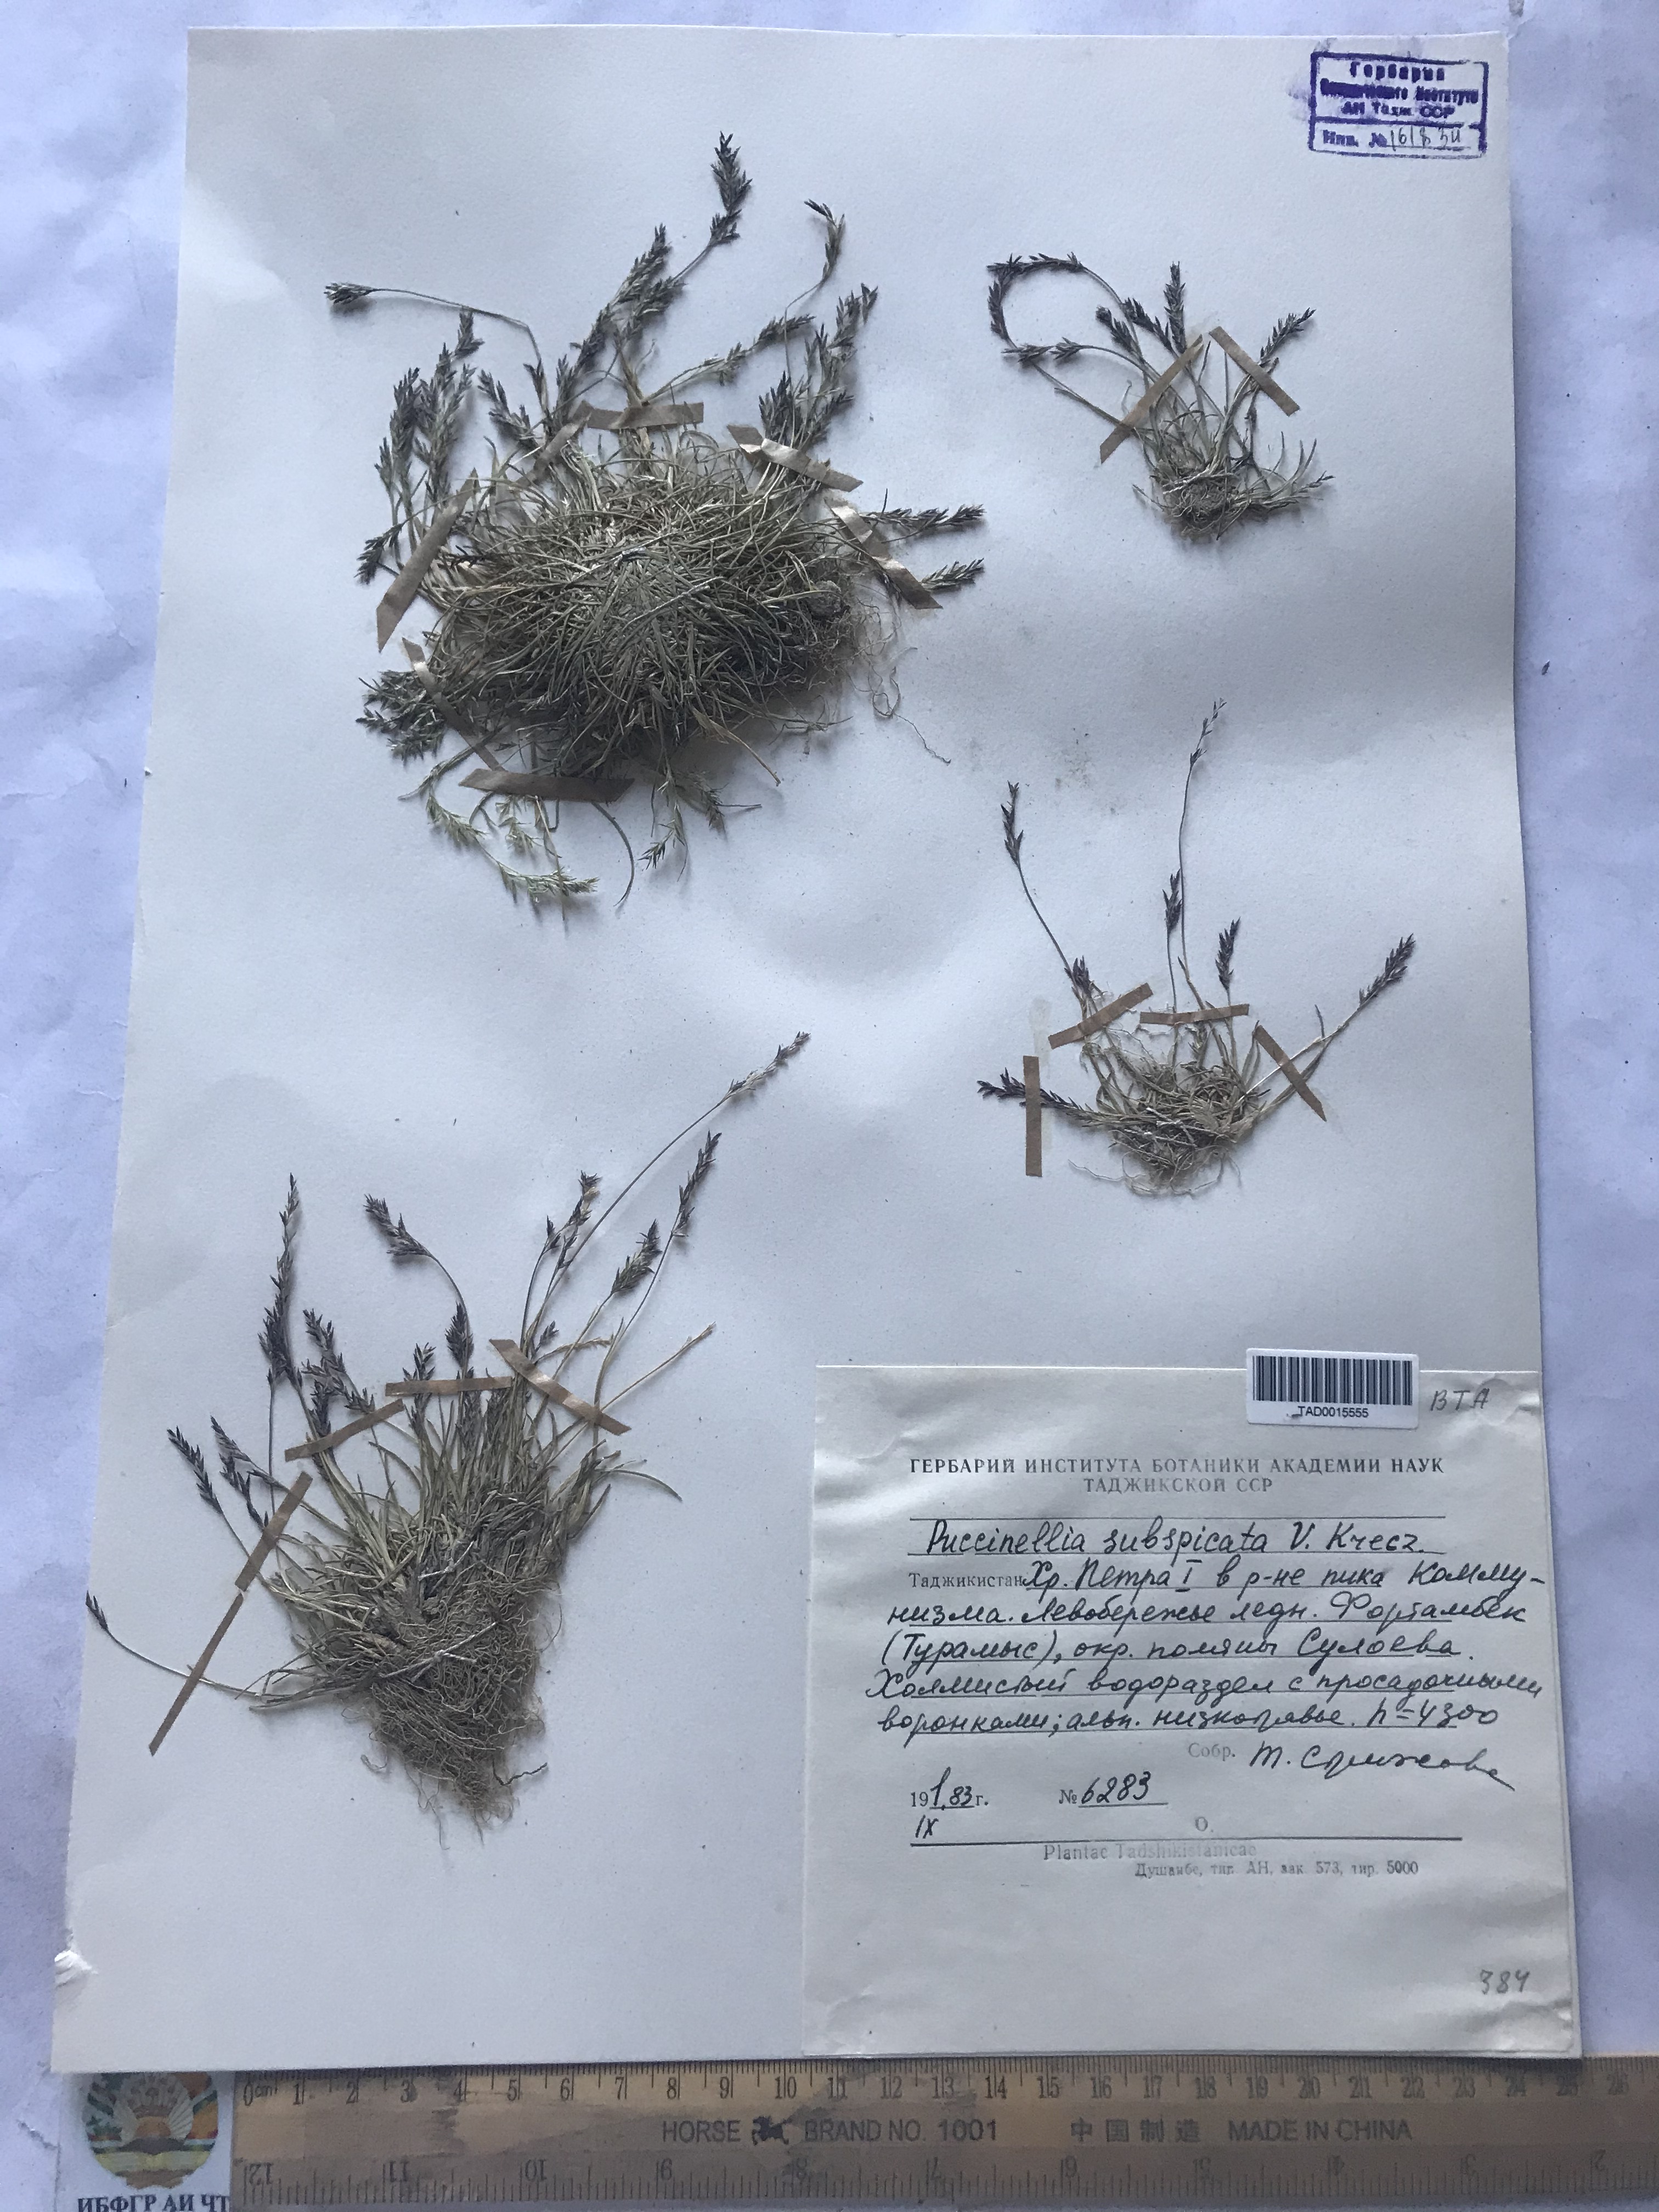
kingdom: Plantae
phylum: Tracheophyta
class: Liliopsida
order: Poales
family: Poaceae
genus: Puccinellia
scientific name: Puccinellia subspicata
